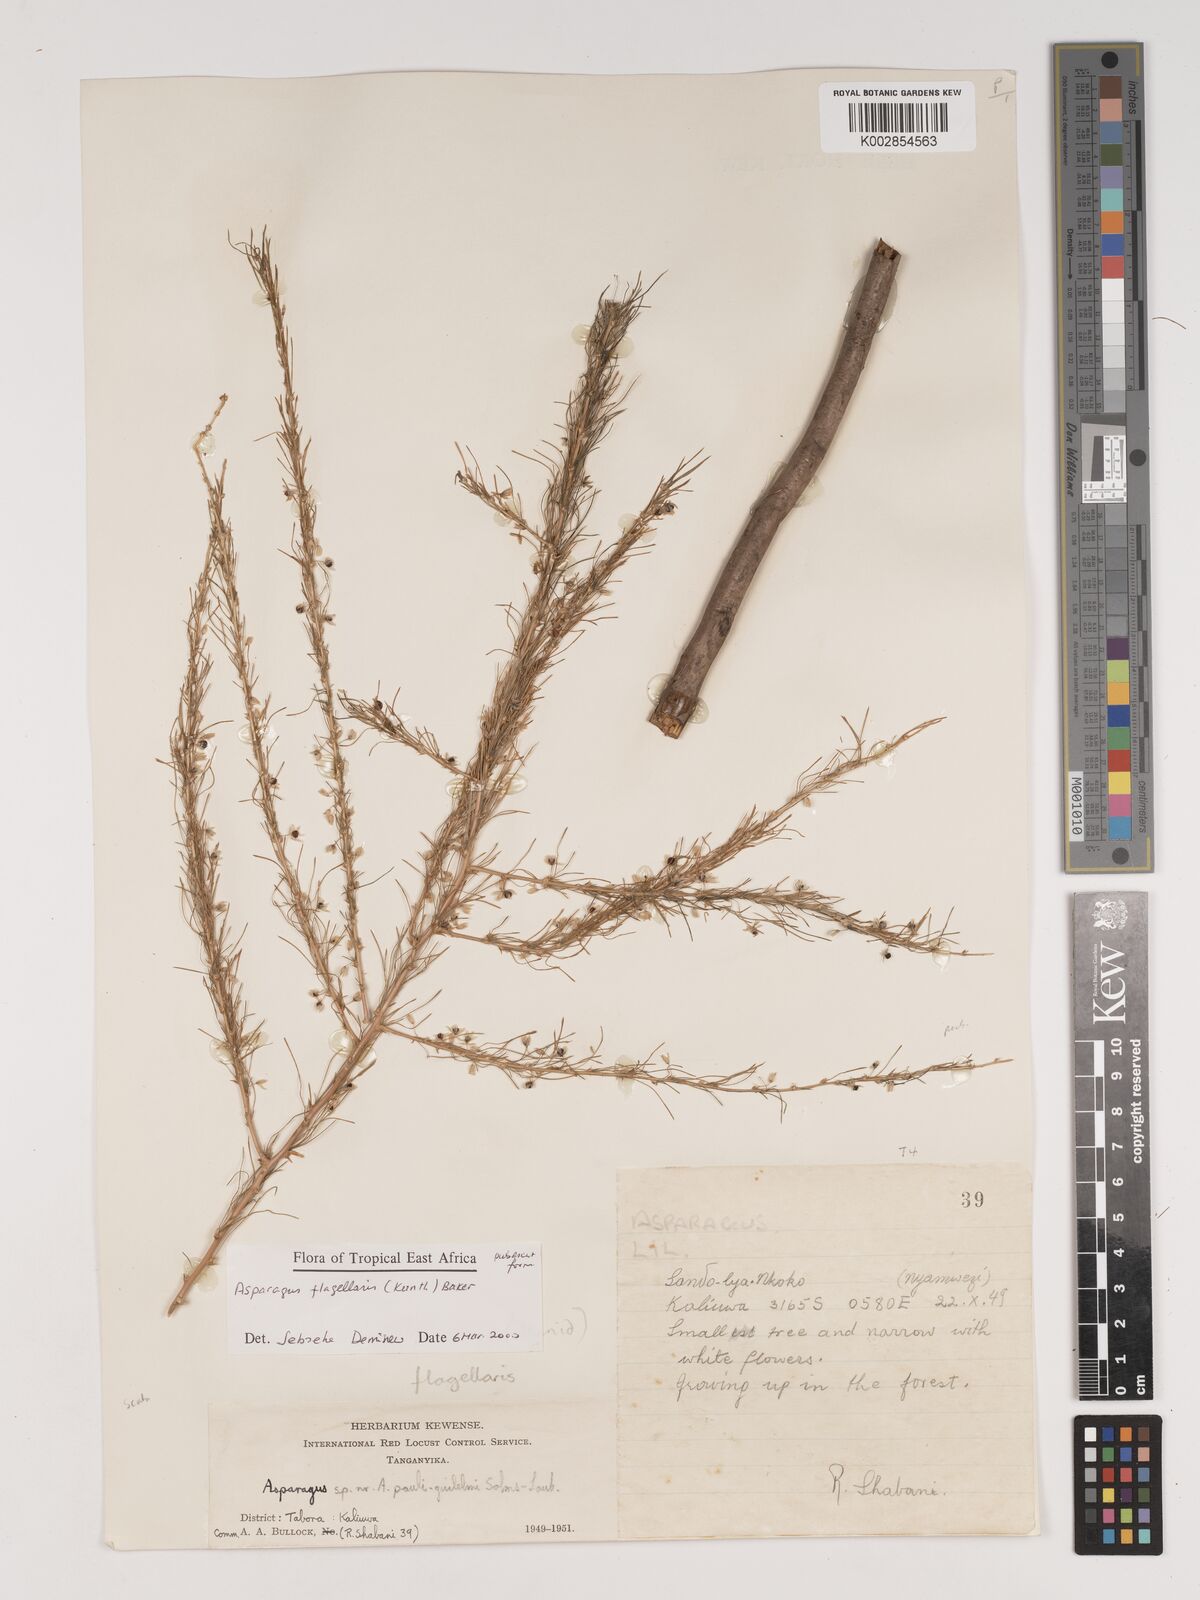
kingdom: Plantae
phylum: Tracheophyta
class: Liliopsida
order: Asparagales
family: Asparagaceae
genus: Asparagus
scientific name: Asparagus flagellaris
